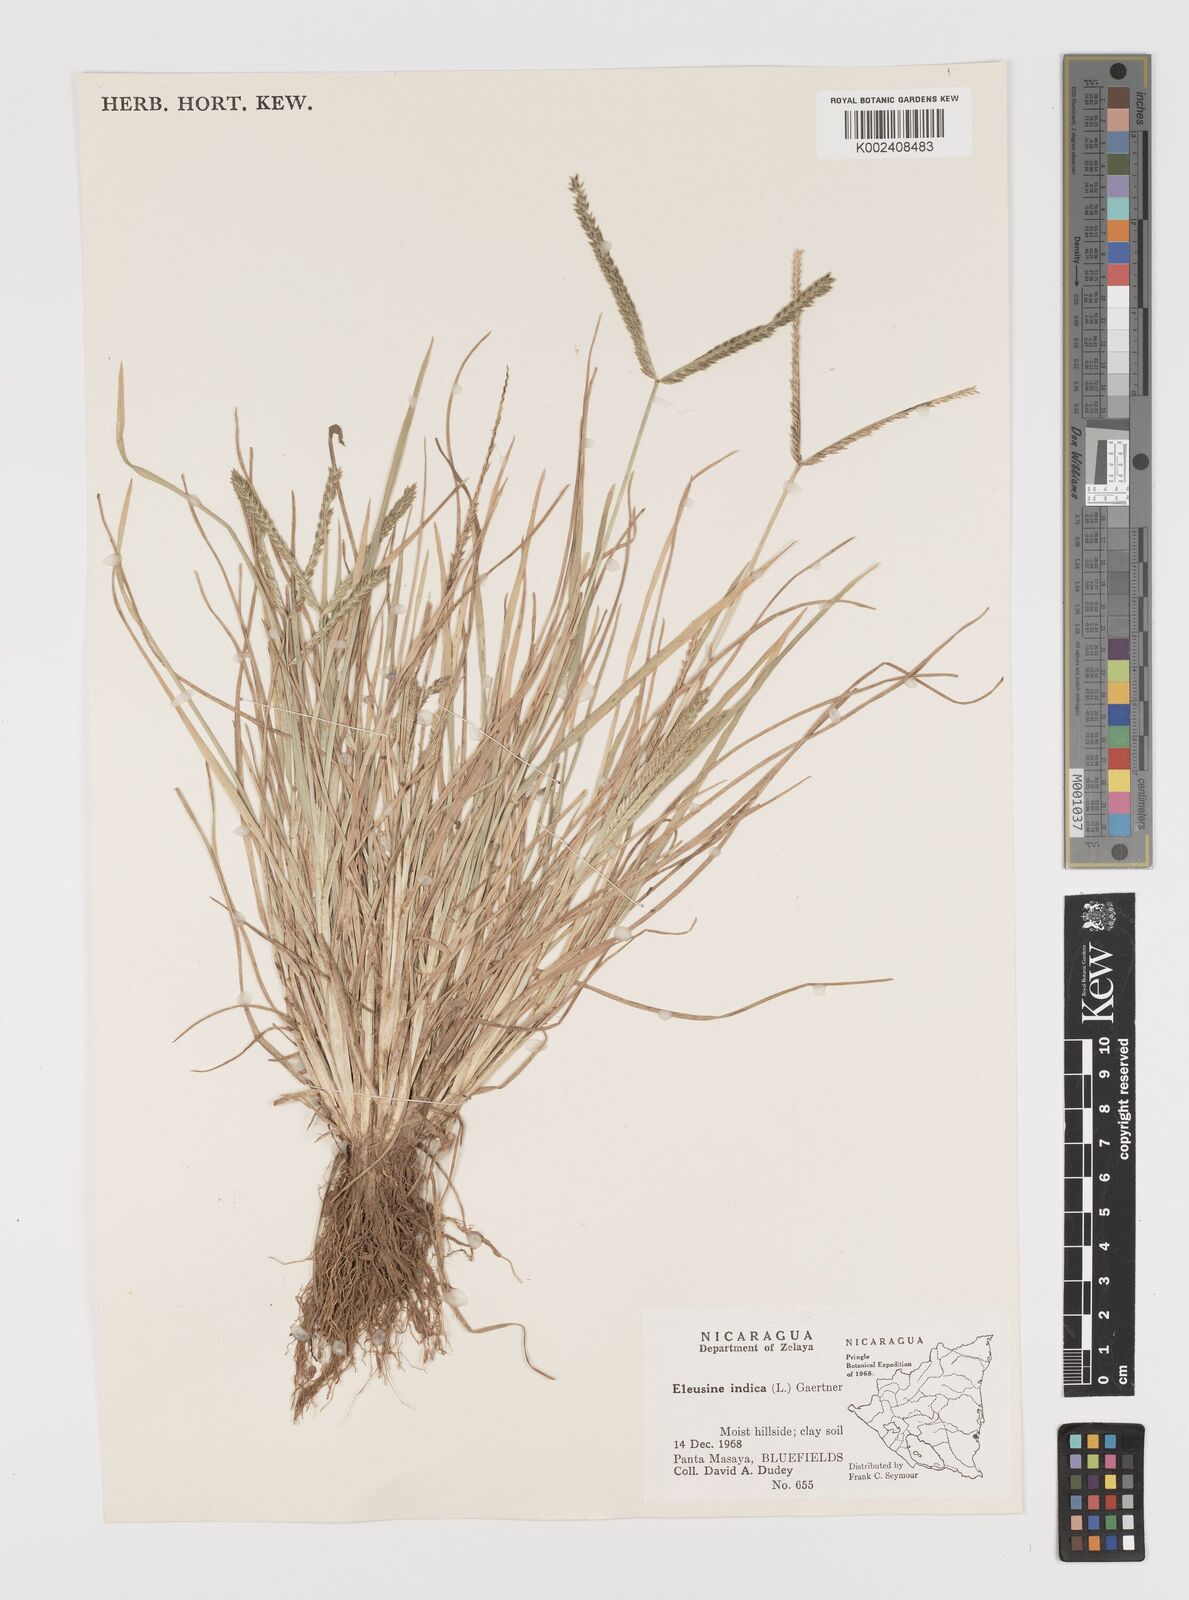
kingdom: Plantae
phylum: Tracheophyta
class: Liliopsida
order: Poales
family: Poaceae
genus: Eleusine
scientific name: Eleusine indica
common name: Yard-grass
